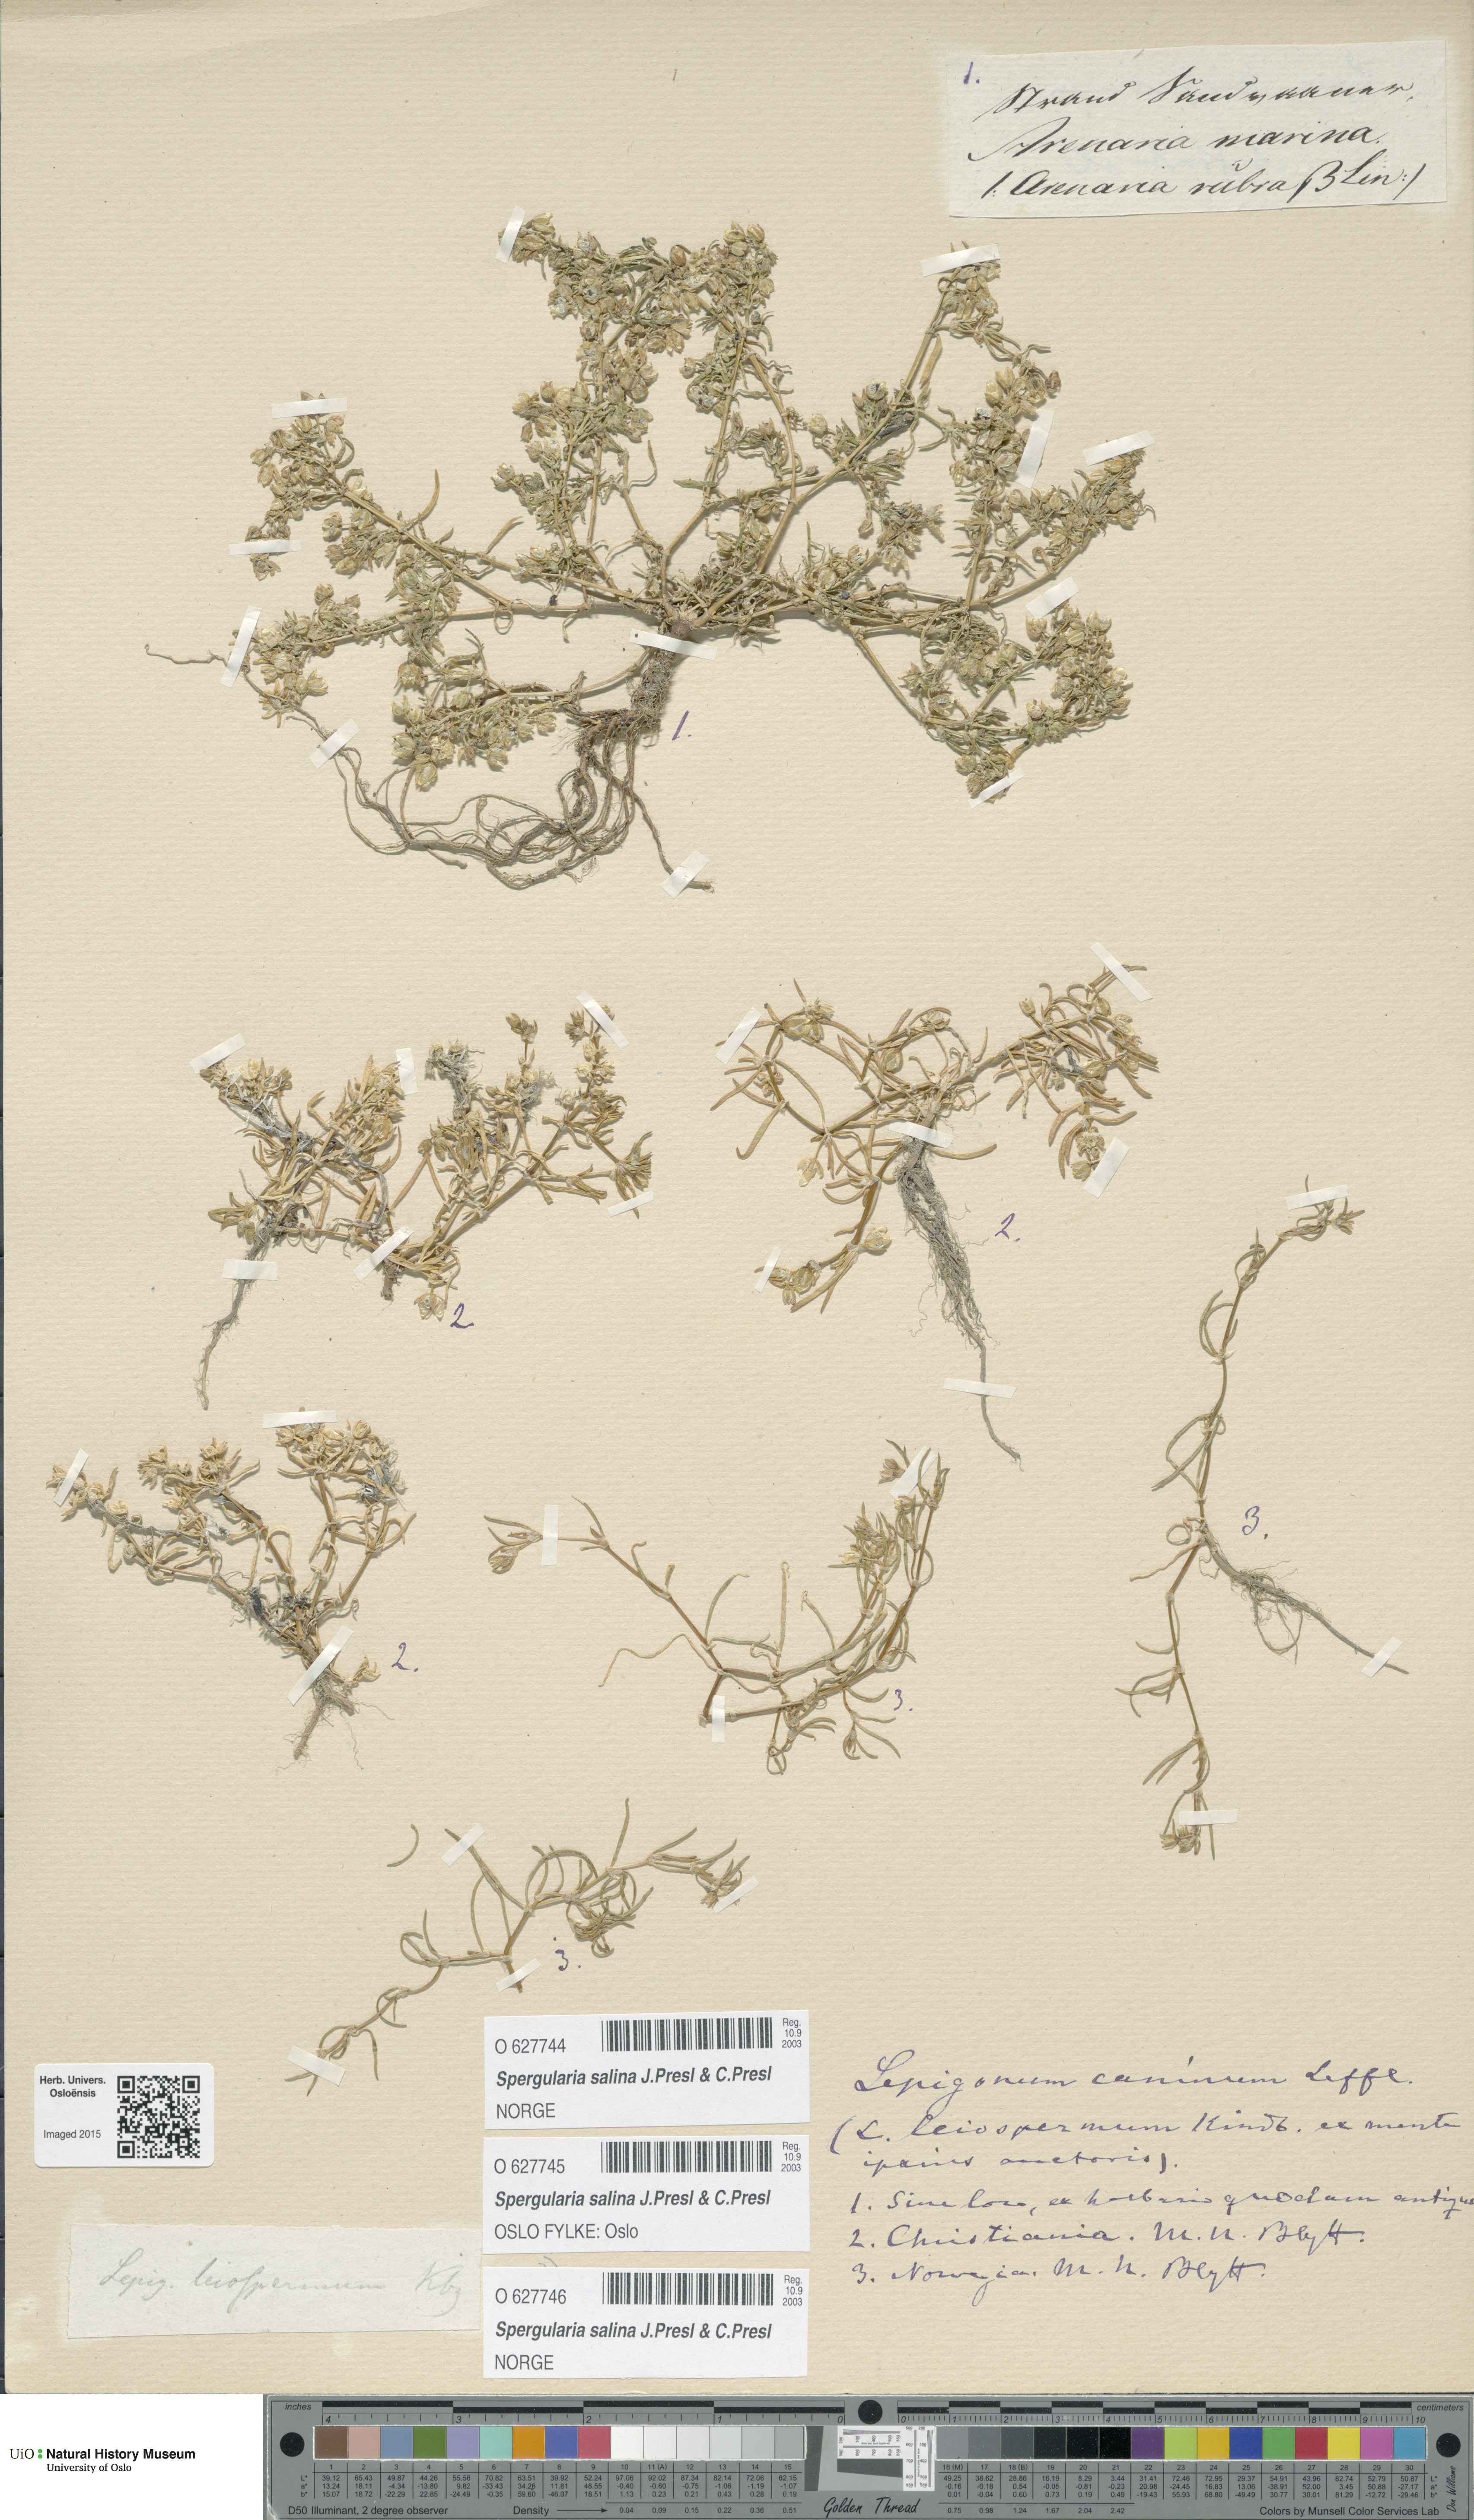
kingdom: Plantae
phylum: Tracheophyta
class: Magnoliopsida
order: Caryophyllales
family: Caryophyllaceae
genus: Spergularia
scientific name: Spergularia marina
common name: Lesser sea-spurrey
